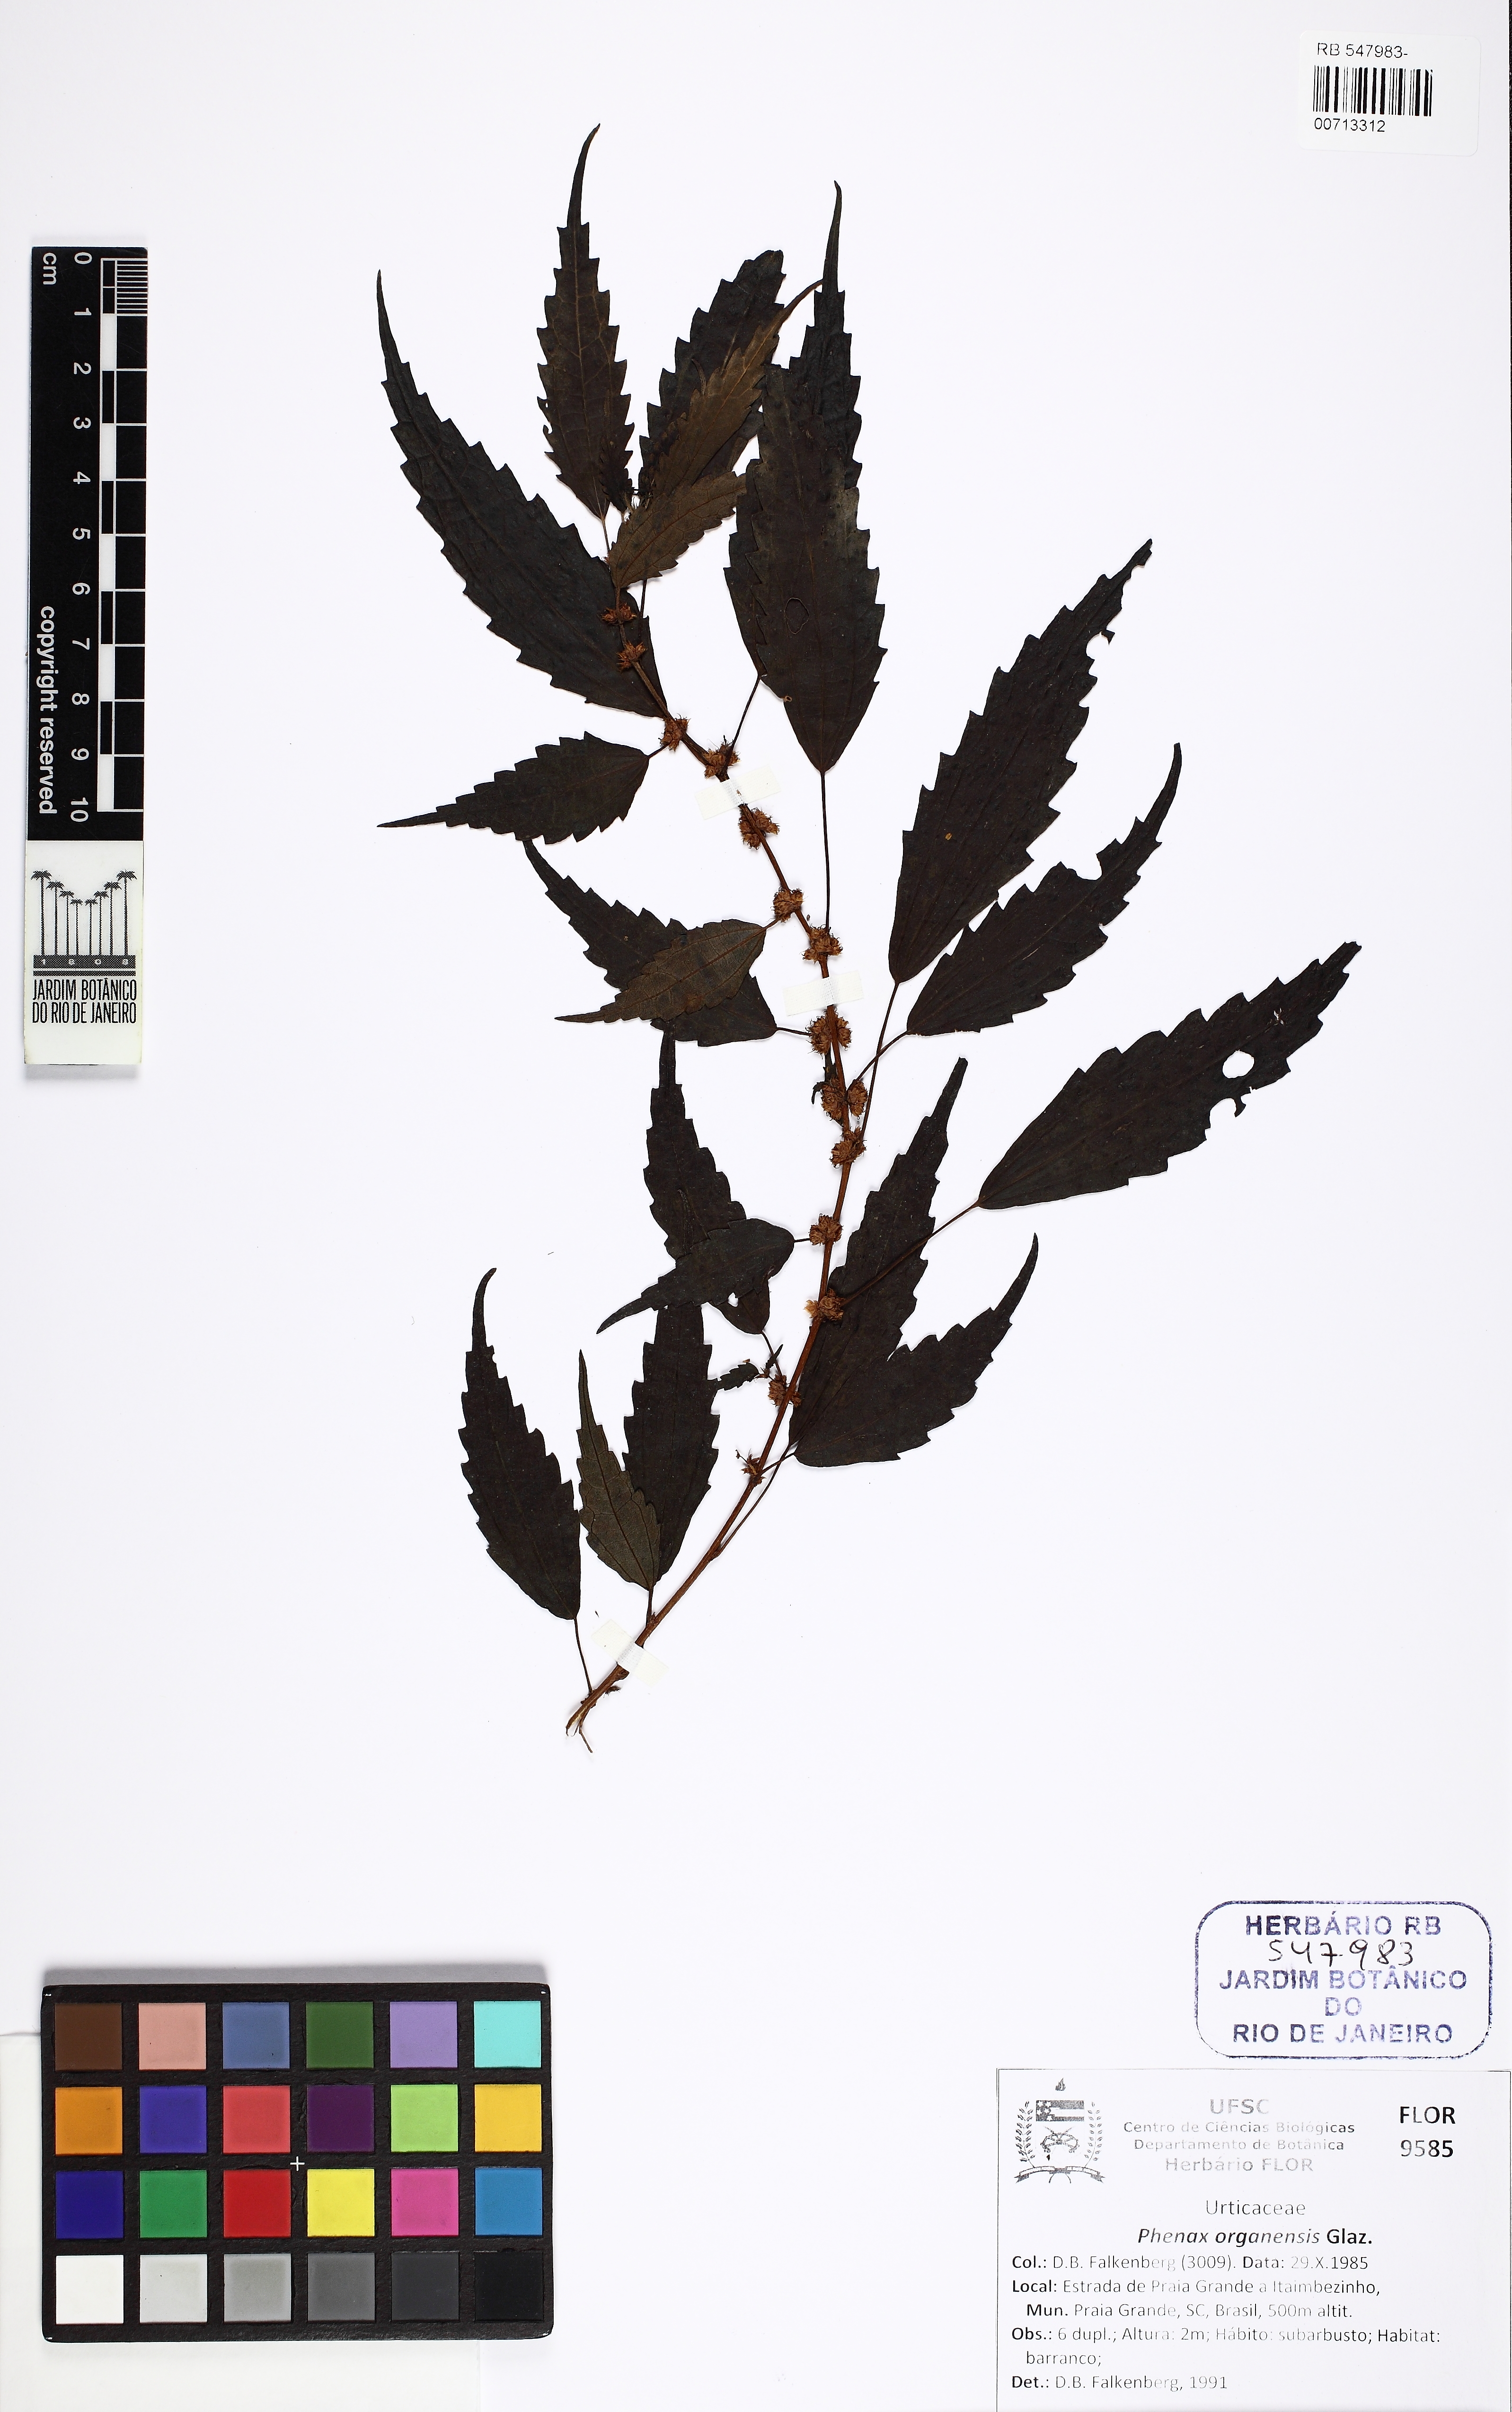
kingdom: Plantae
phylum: Tracheophyta
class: Magnoliopsida
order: Rosales
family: Urticaceae
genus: Phenax
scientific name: Phenax organensis
